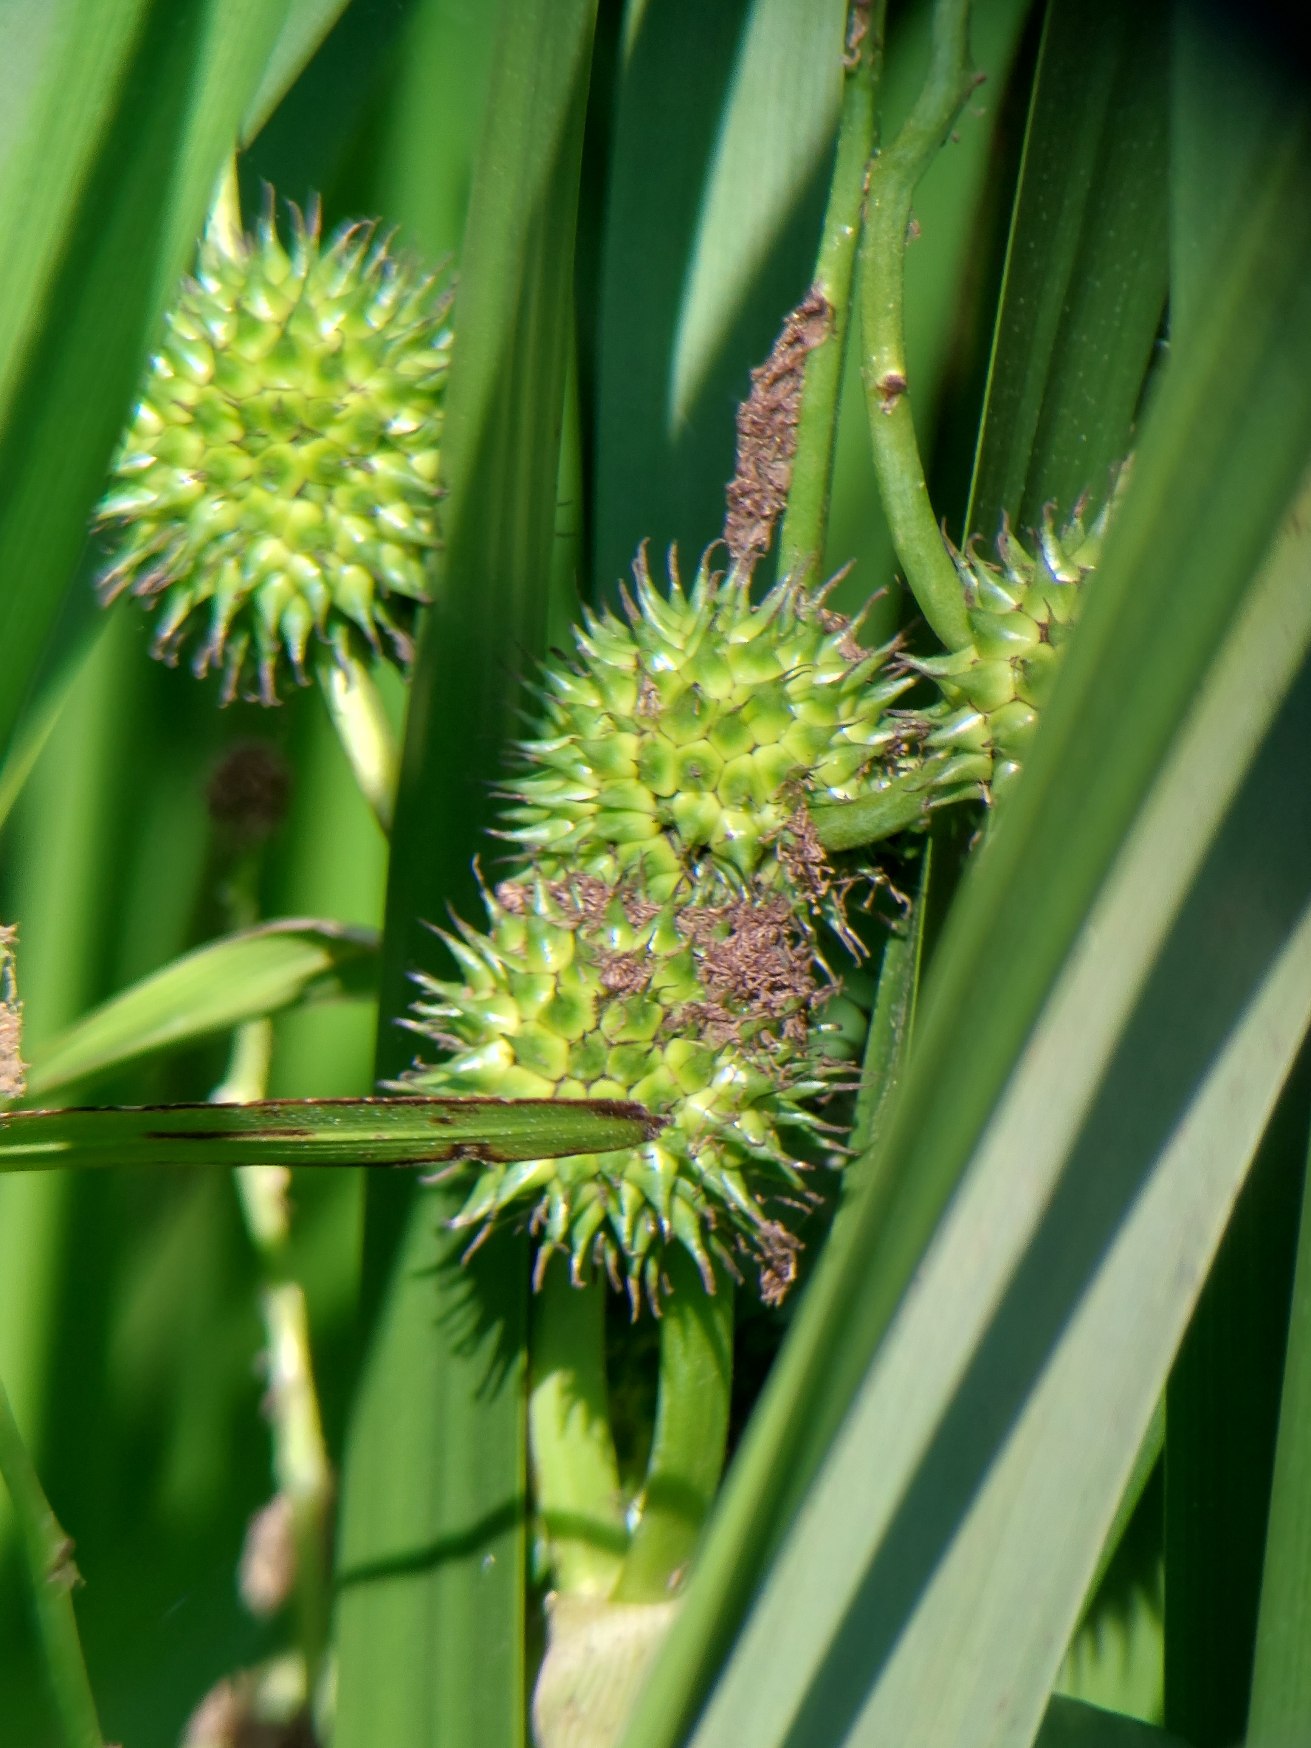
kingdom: Plantae
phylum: Tracheophyta
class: Liliopsida
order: Poales
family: Typhaceae
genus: Sparganium
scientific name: Sparganium erectum
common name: Grenet pindsvineknop
